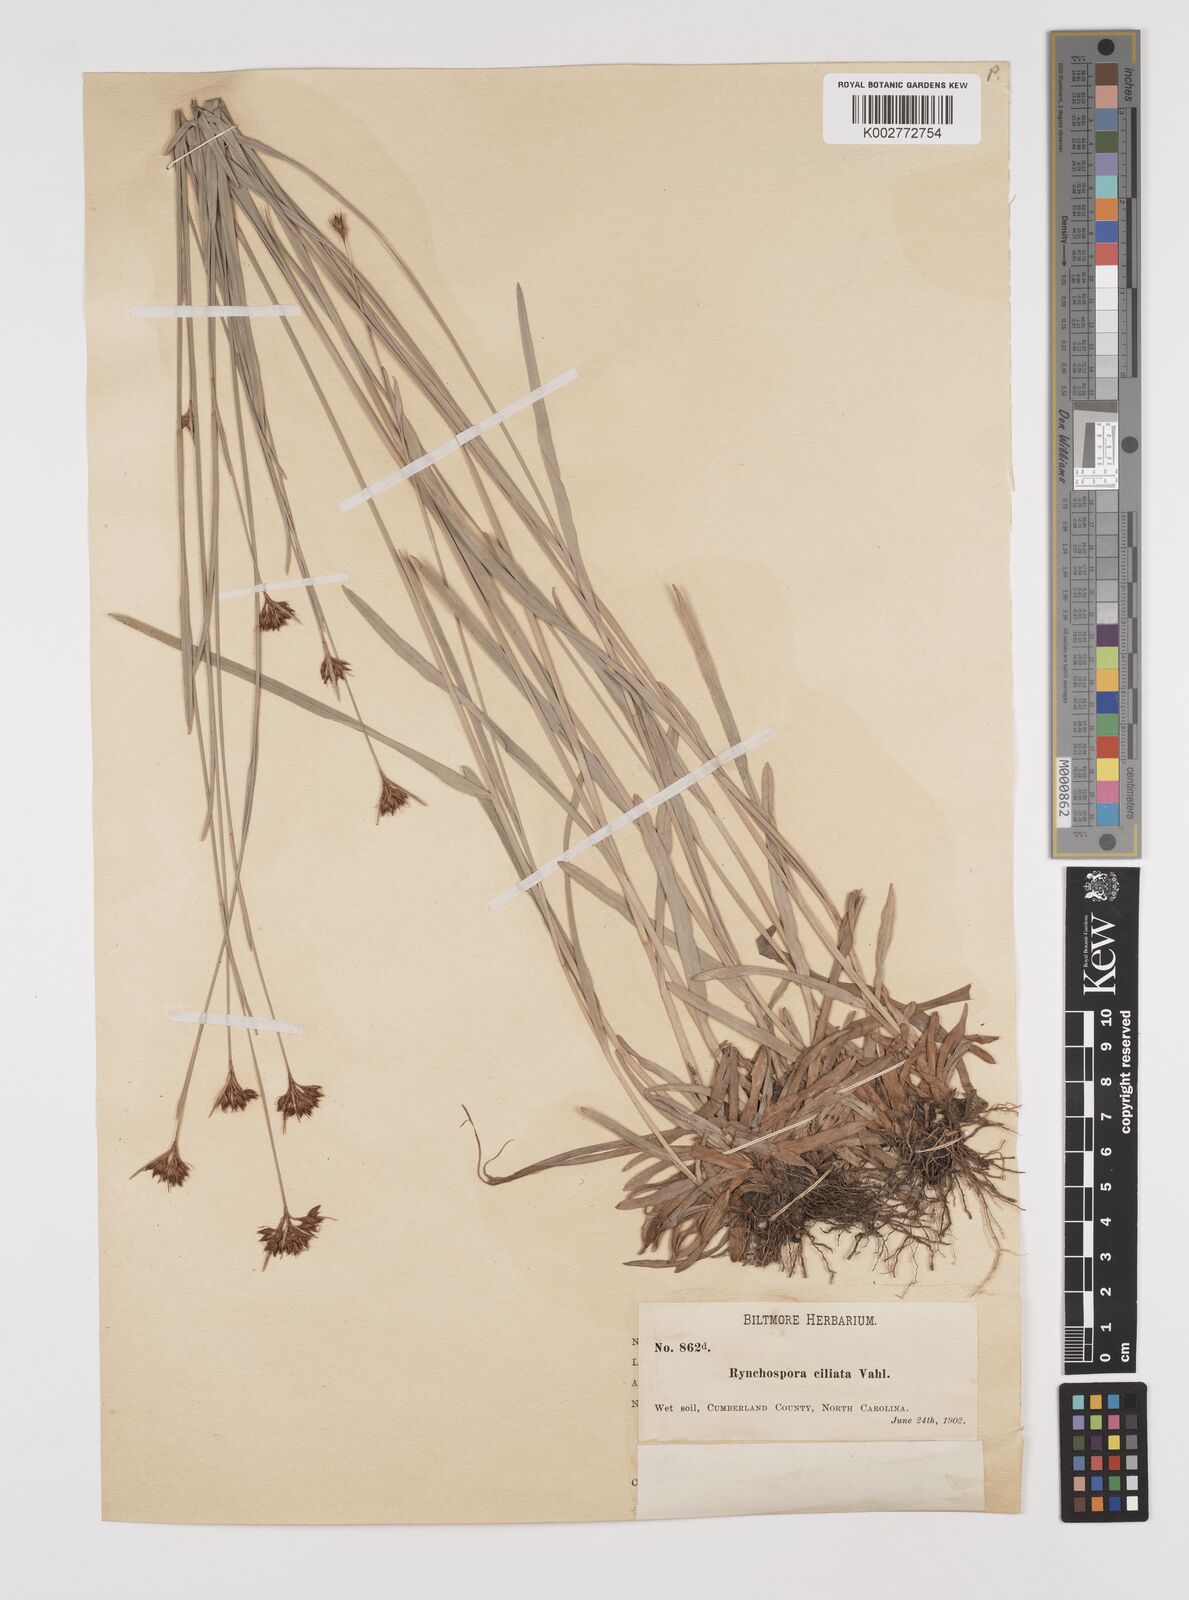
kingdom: Plantae
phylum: Tracheophyta
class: Liliopsida
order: Poales
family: Cyperaceae
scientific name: Cyperaceae
